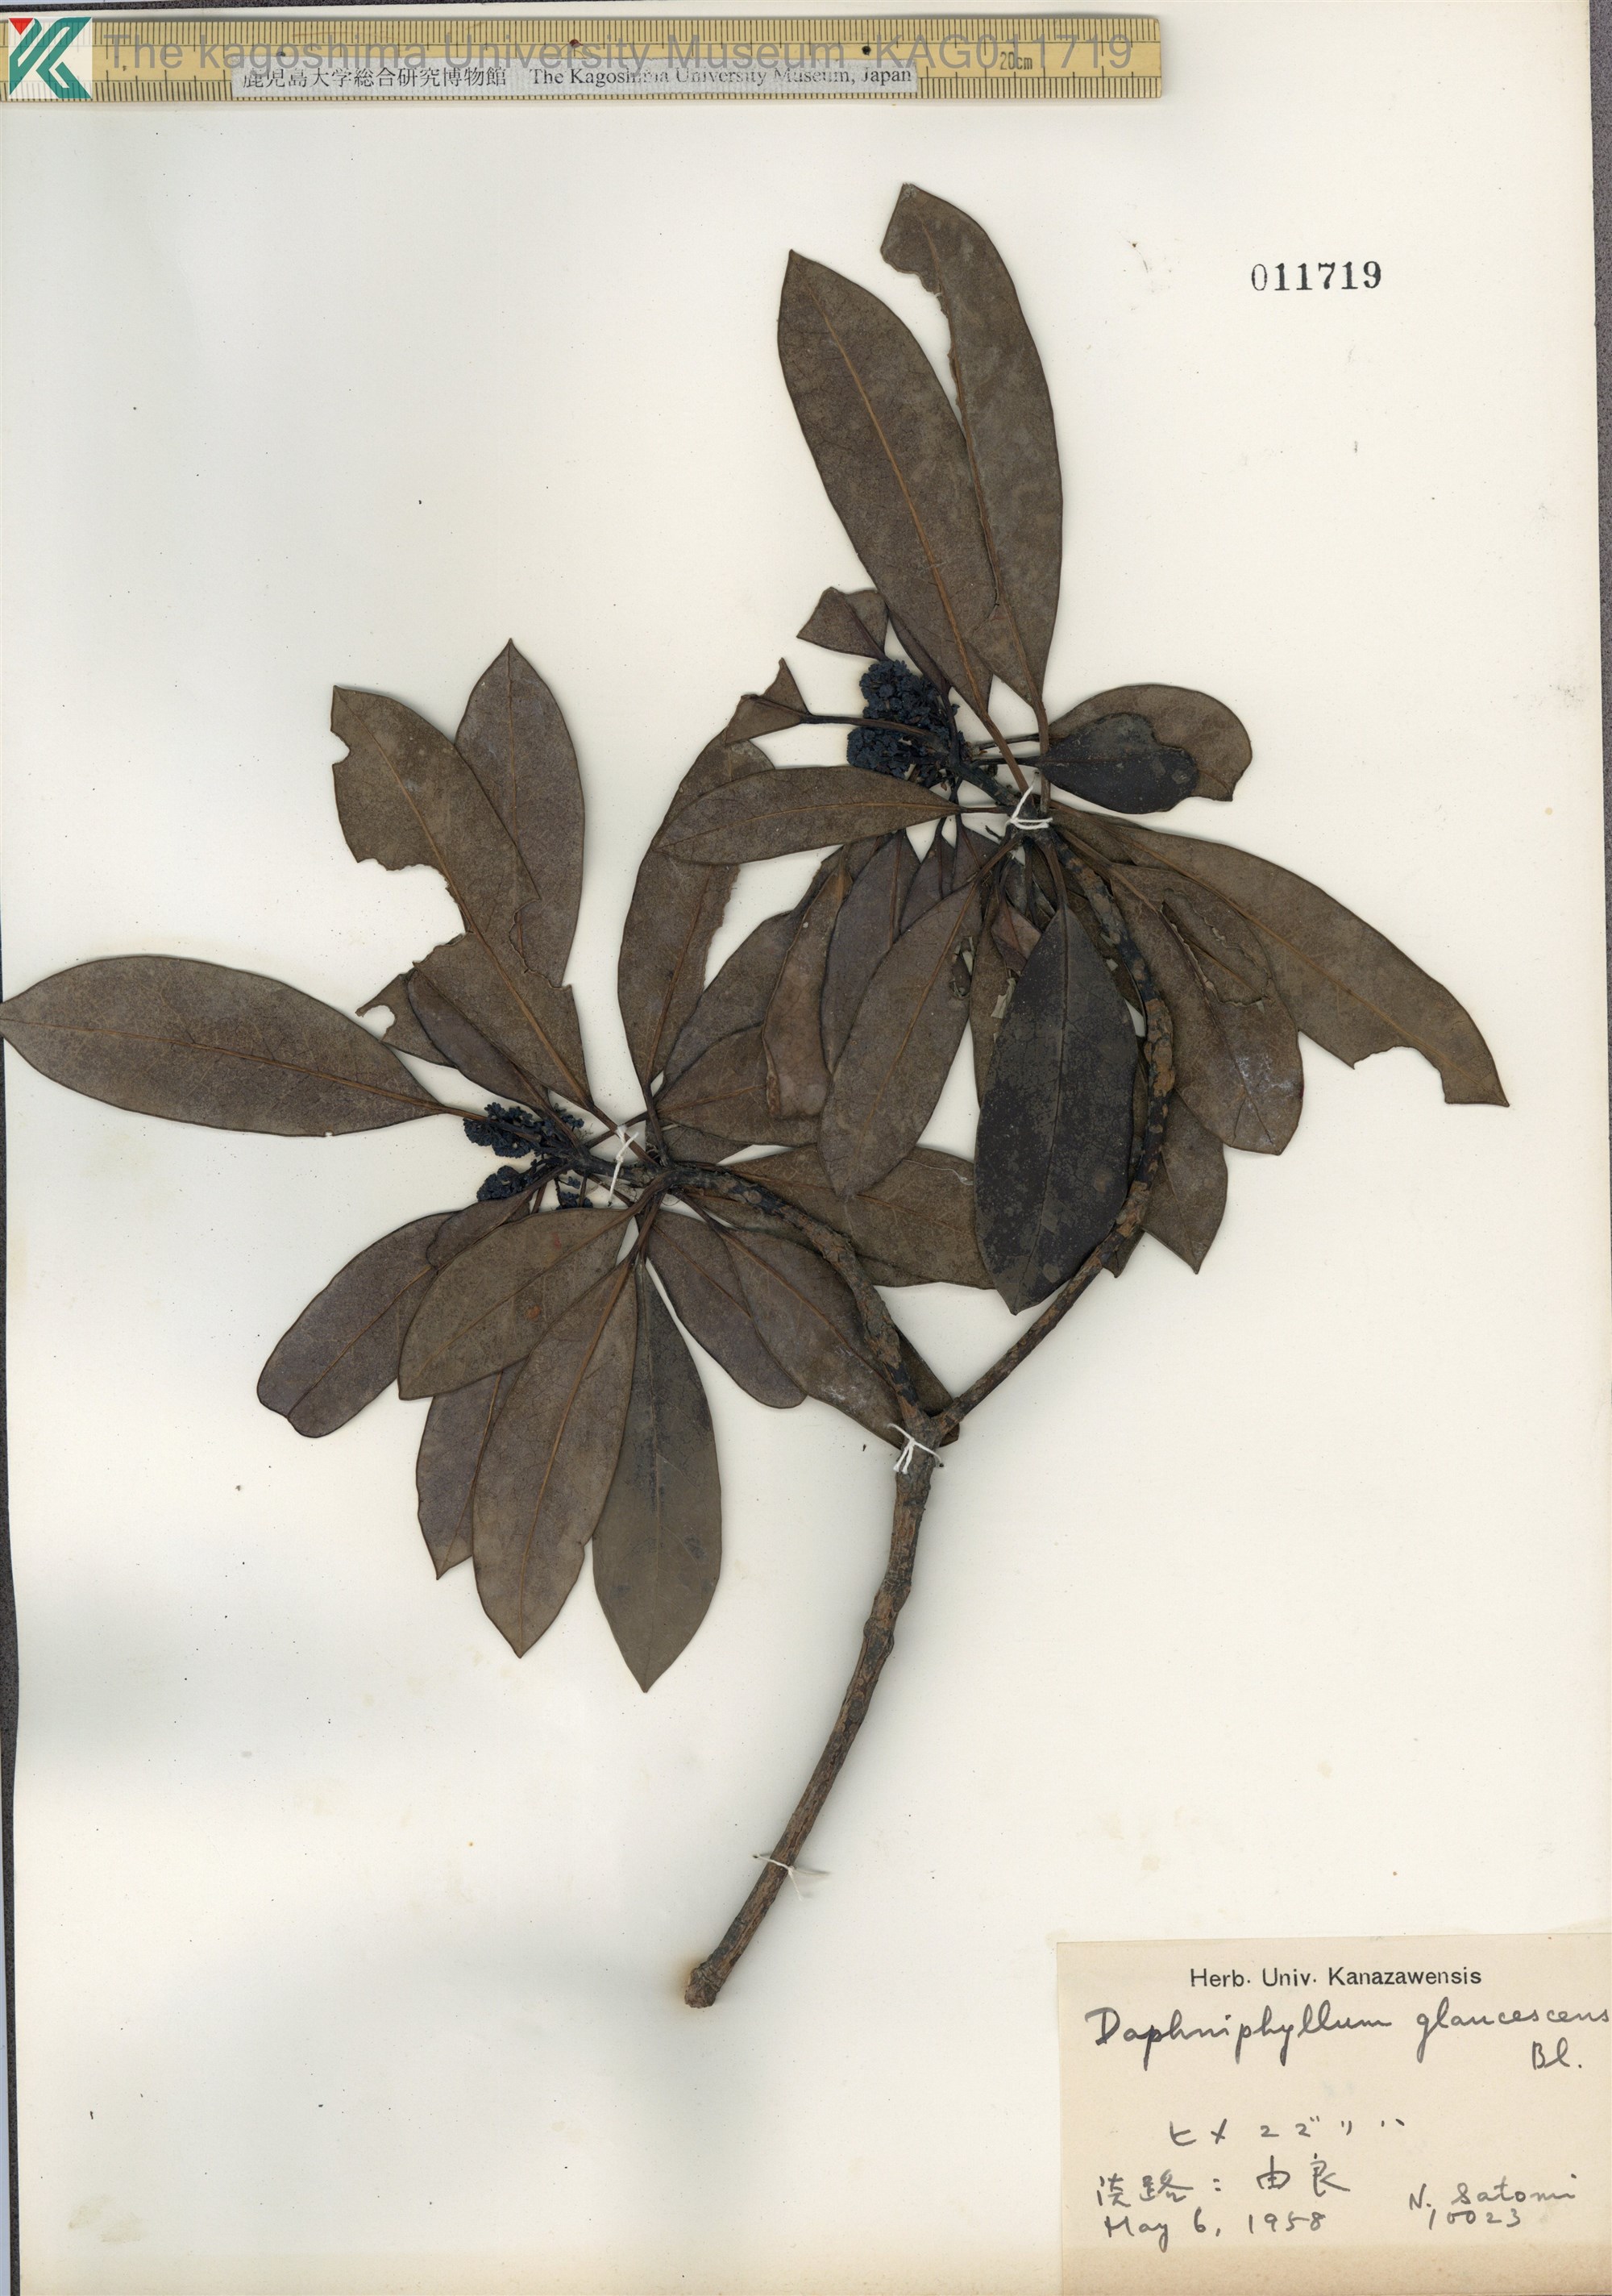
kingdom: Plantae
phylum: Tracheophyta
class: Magnoliopsida
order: Saxifragales
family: Daphniphyllaceae
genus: Daphniphyllum
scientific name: Daphniphyllum teijsmannii
